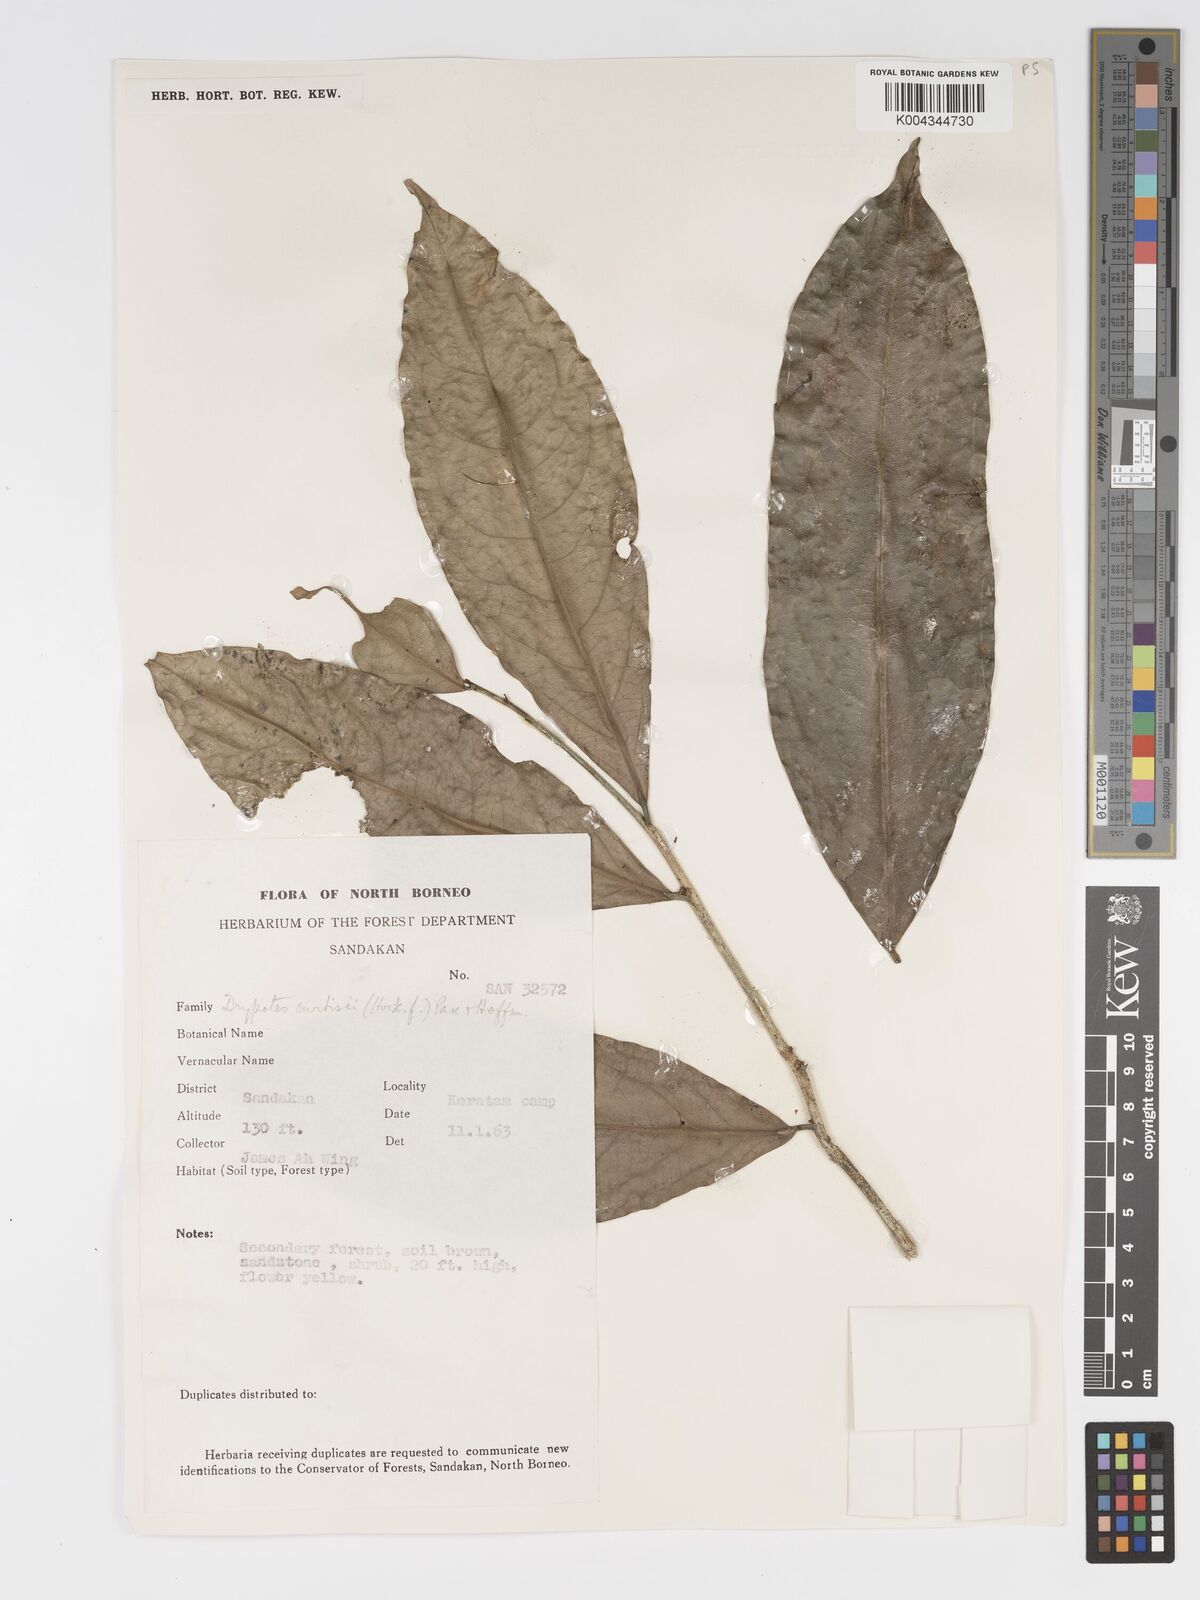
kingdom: Plantae
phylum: Tracheophyta
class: Magnoliopsida
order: Malpighiales
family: Putranjivaceae
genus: Drypetes
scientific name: Drypetes curtisii
